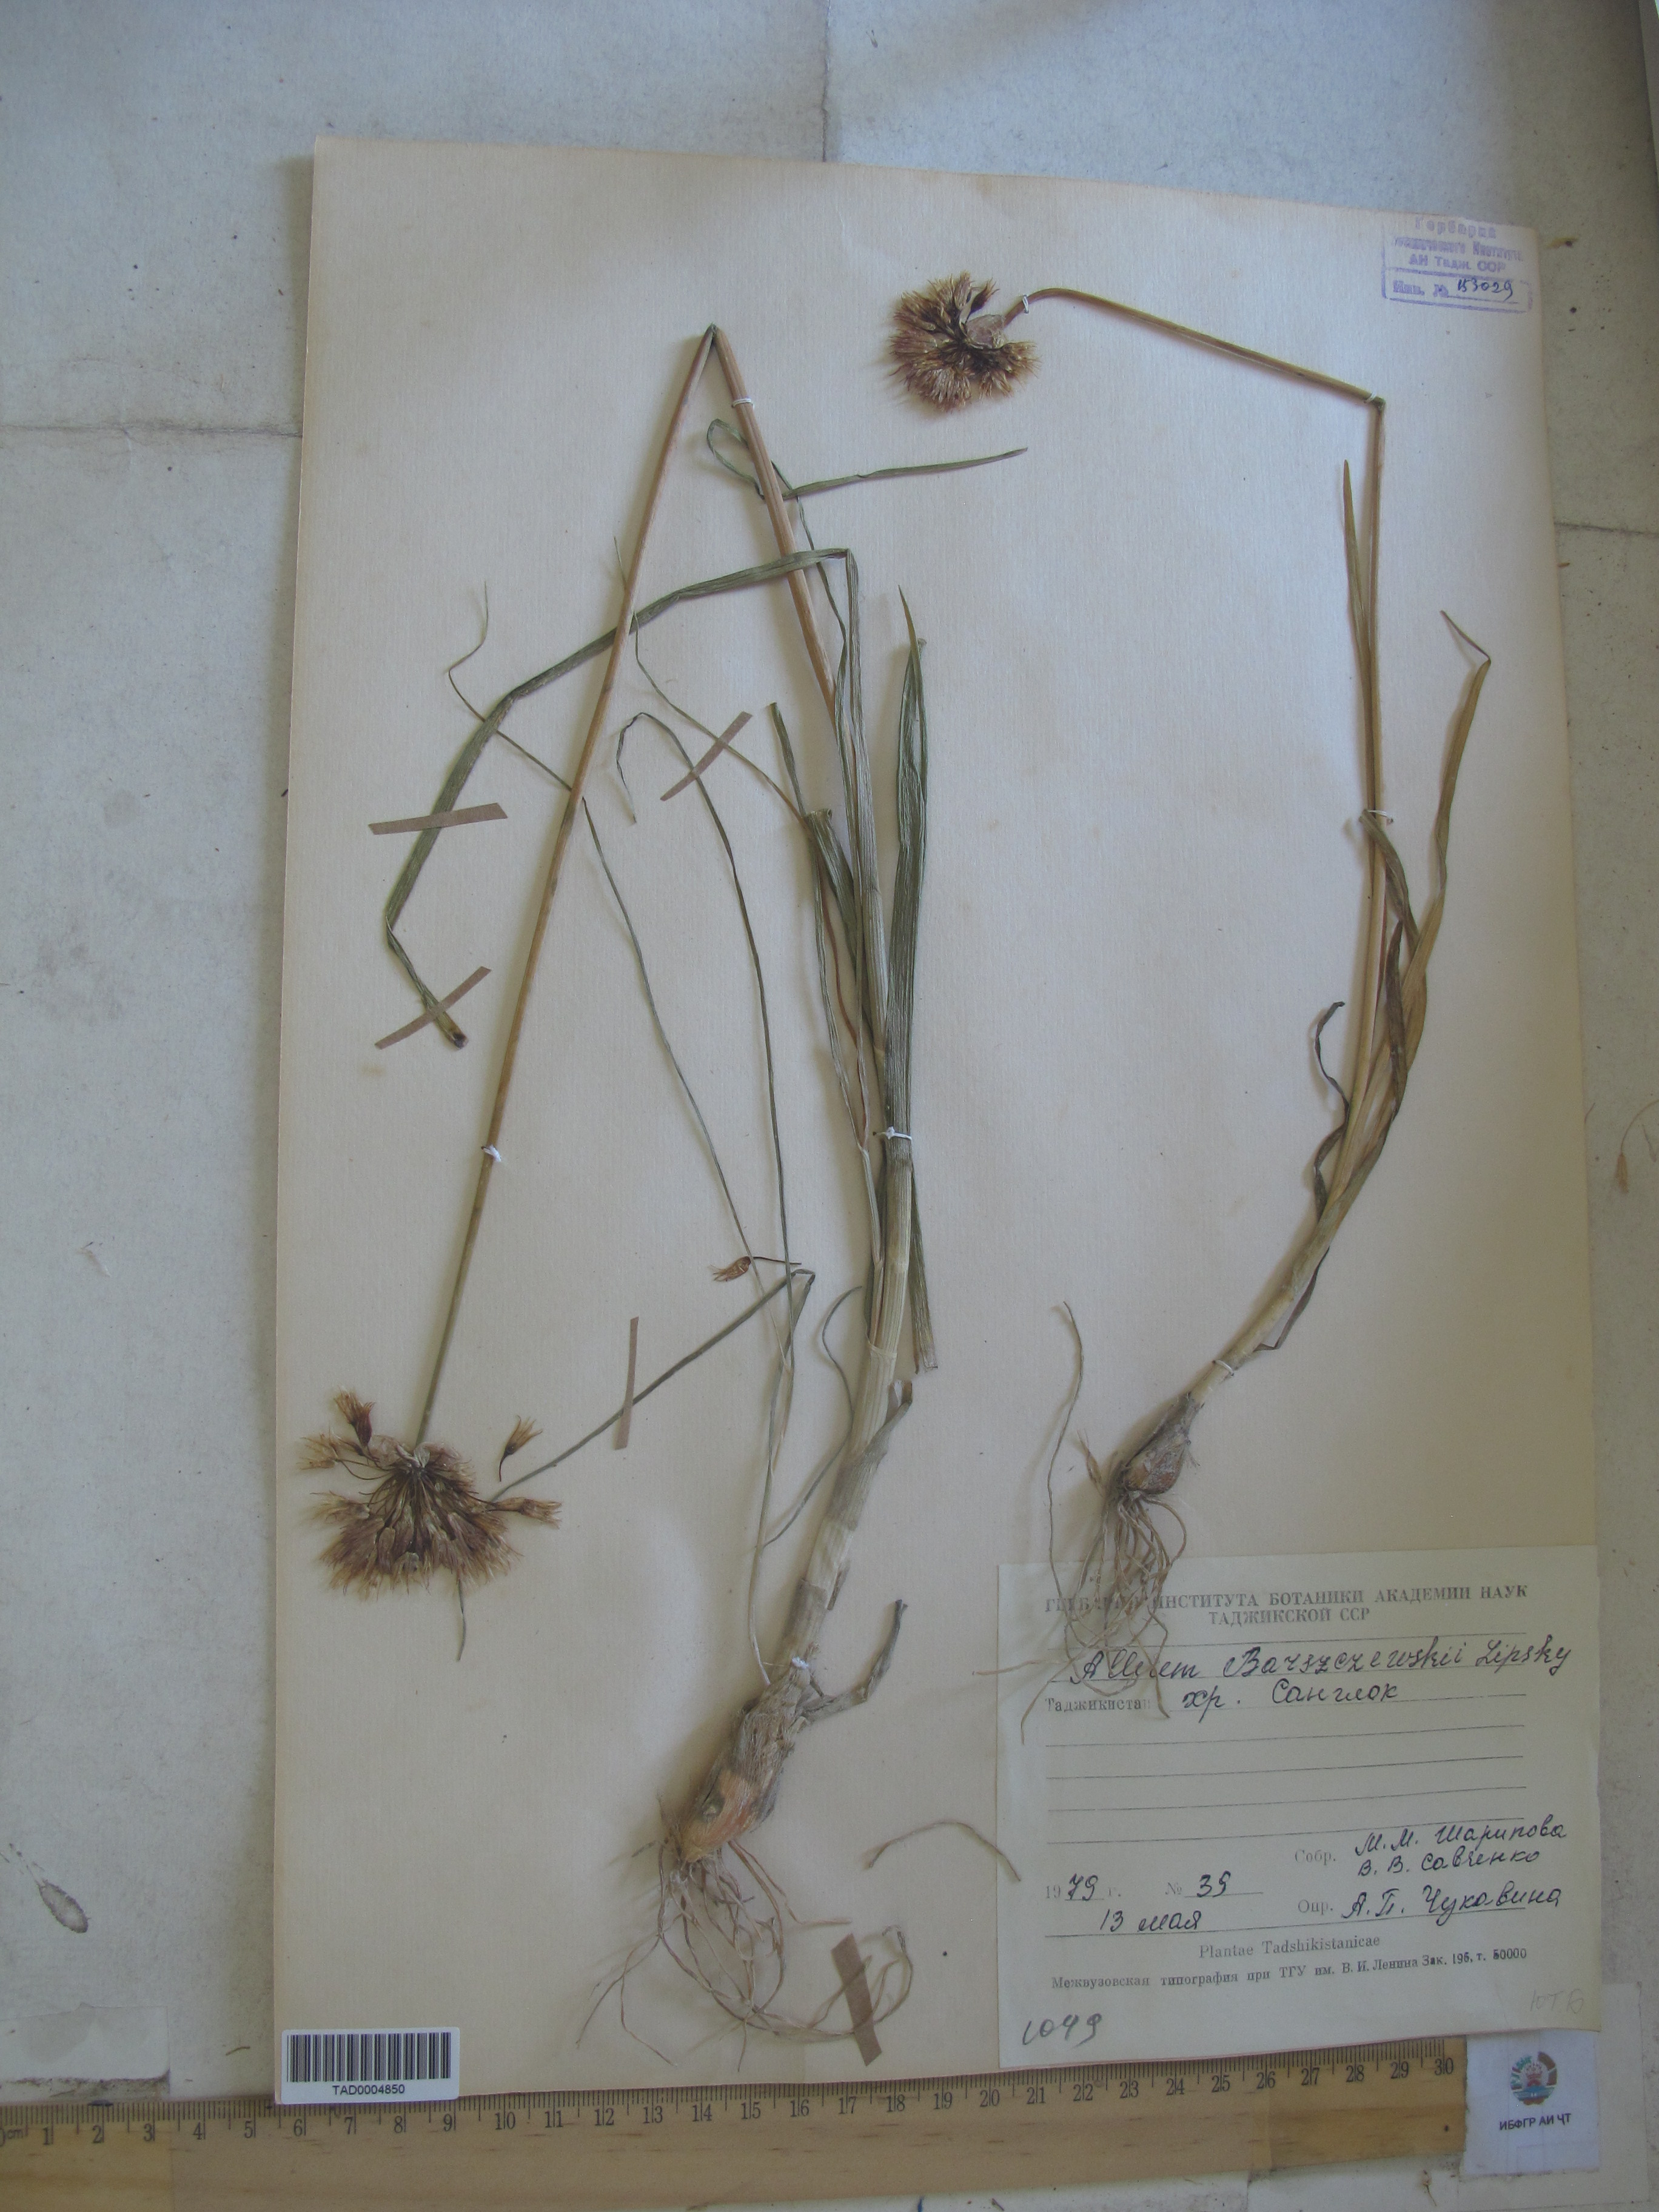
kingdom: Plantae
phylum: Tracheophyta
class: Liliopsida
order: Asparagales
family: Amaryllidaceae
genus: Allium
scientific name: Allium barsczewskii
